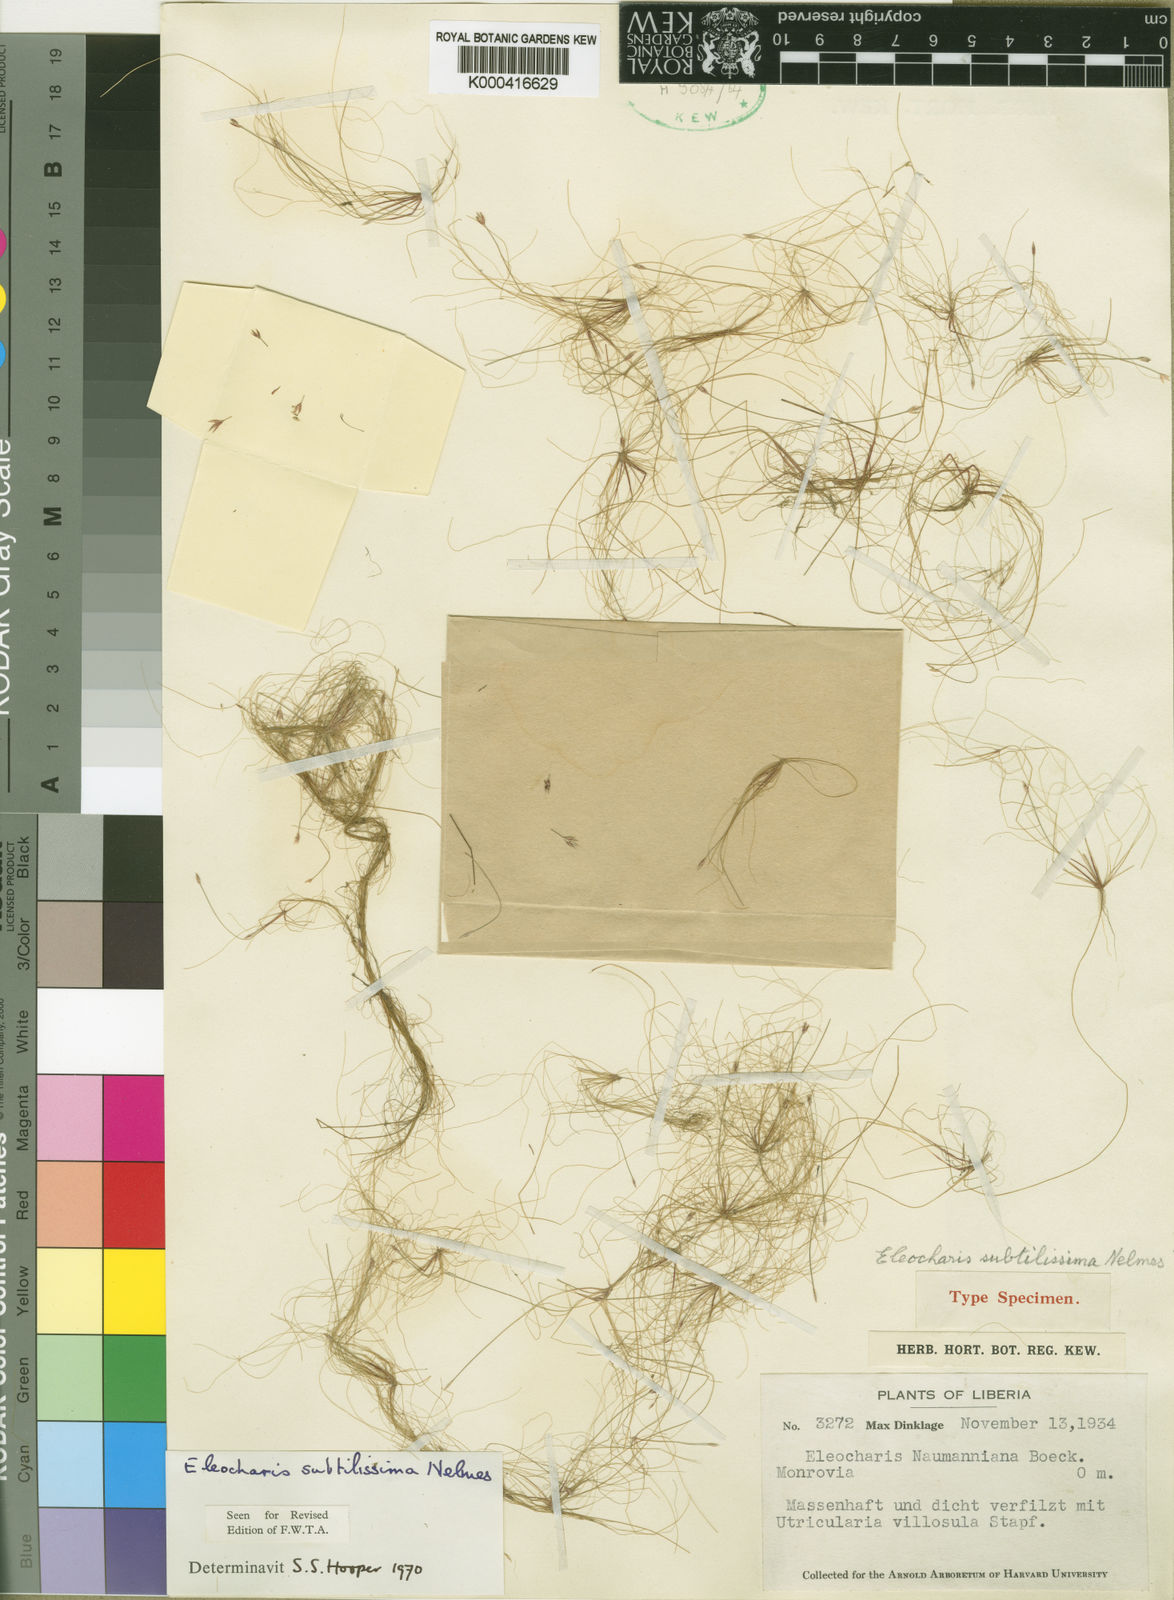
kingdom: Plantae
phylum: Tracheophyta
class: Liliopsida
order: Poales
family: Cyperaceae
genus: Eleocharis
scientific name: Eleocharis retroflexa
